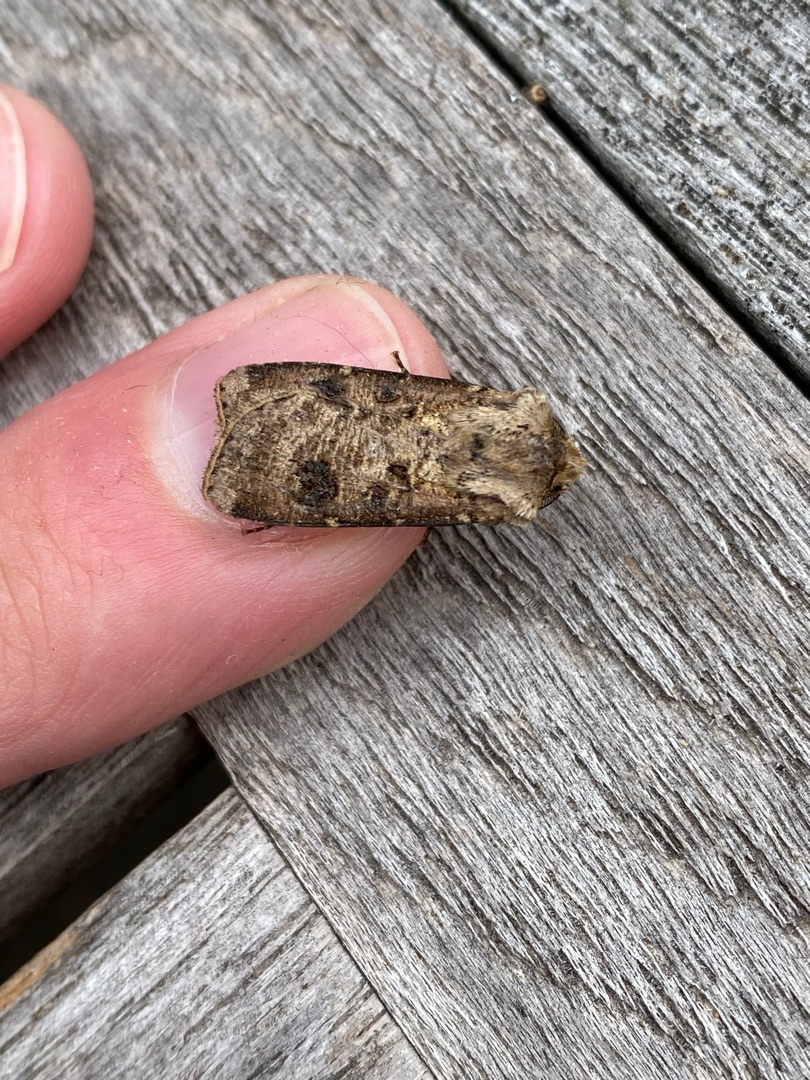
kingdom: Animalia
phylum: Arthropoda
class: Insecta
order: Lepidoptera
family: Noctuidae
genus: Agrotis
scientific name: Agrotis clavis
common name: Nøgle-landmand
